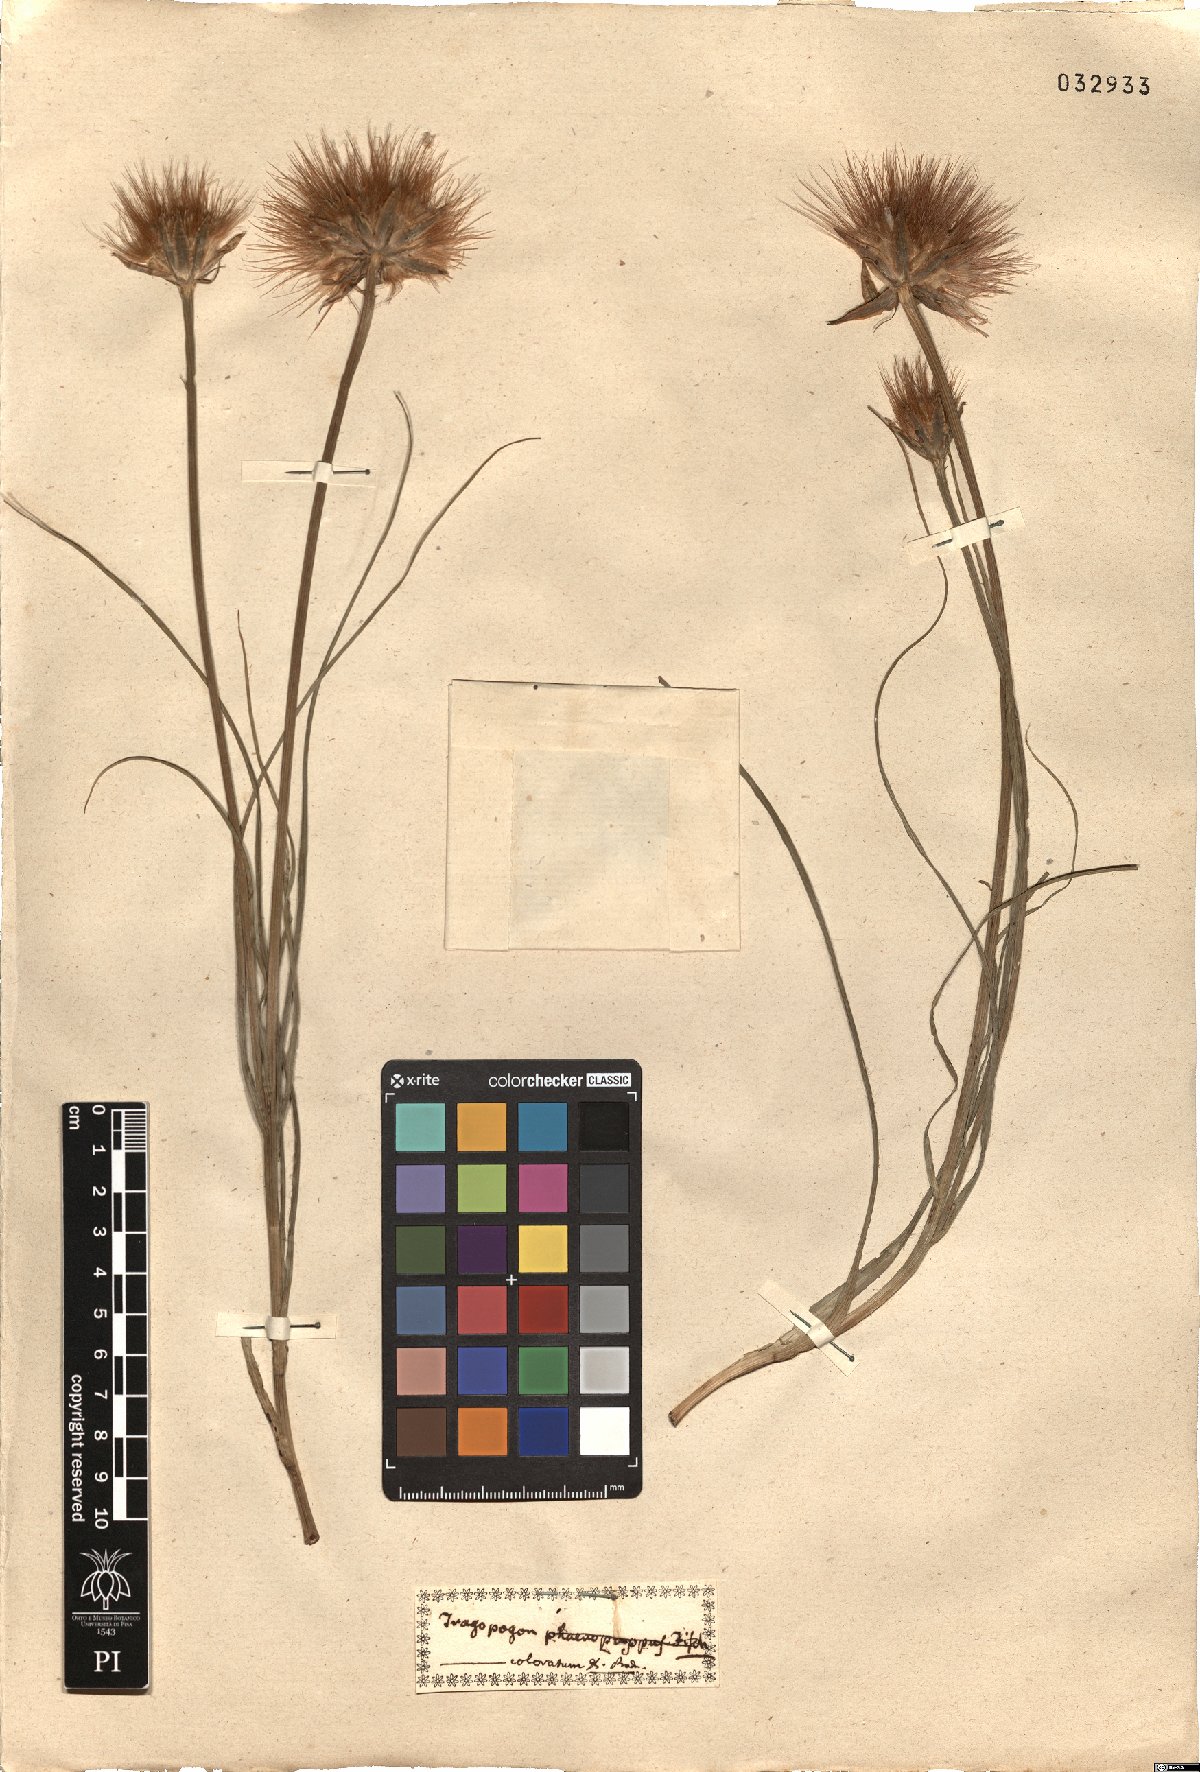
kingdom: Plantae
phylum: Tracheophyta
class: Magnoliopsida
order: Asterales
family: Asteraceae
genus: Gelasia
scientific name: Gelasia hirsuta
